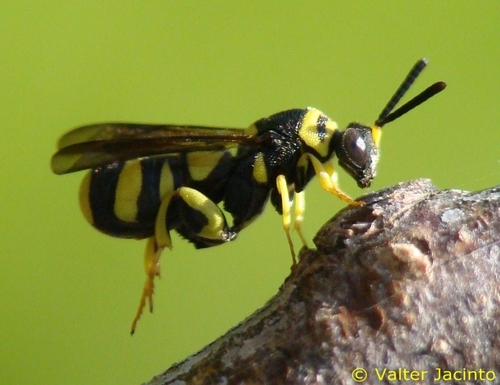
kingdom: Animalia
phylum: Arthropoda
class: Insecta
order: Hymenoptera
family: Leucospidae
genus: Leucospis
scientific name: Leucospis dorsigera
